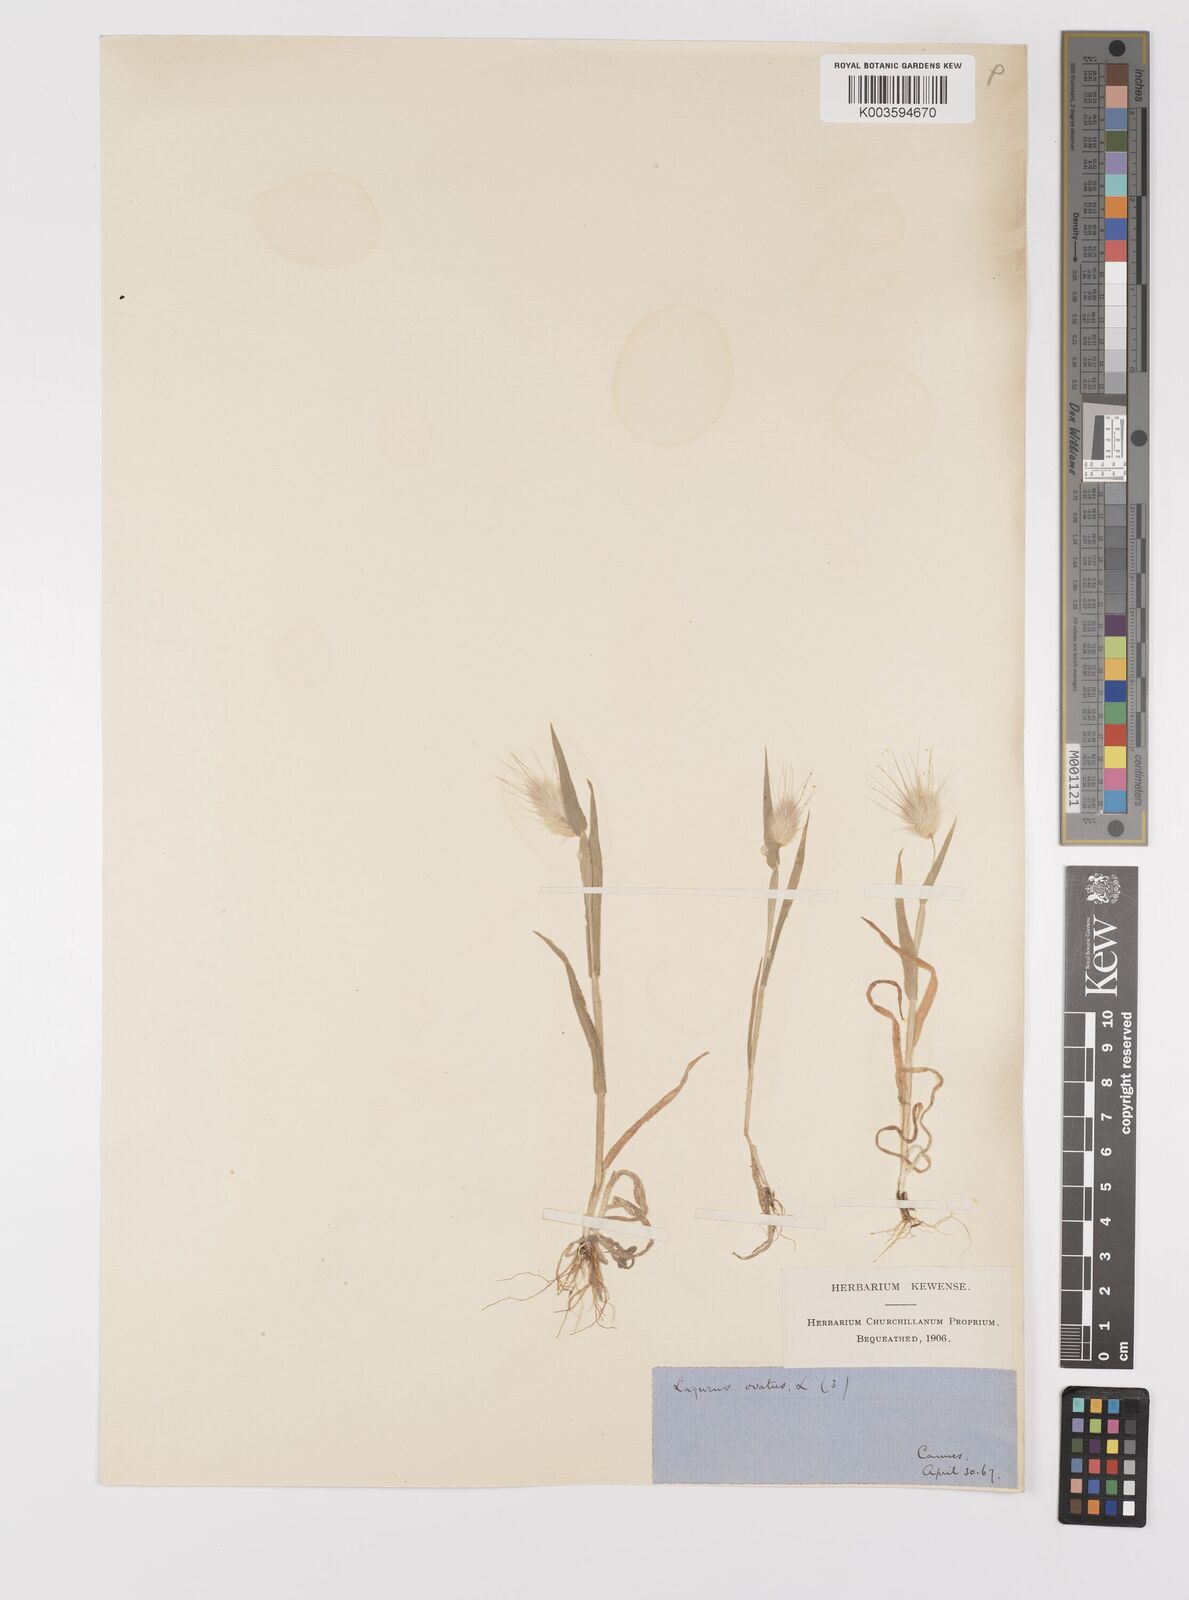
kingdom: Plantae
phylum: Tracheophyta
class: Liliopsida
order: Poales
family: Poaceae
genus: Lagurus
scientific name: Lagurus ovatus
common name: Hare's-tail
